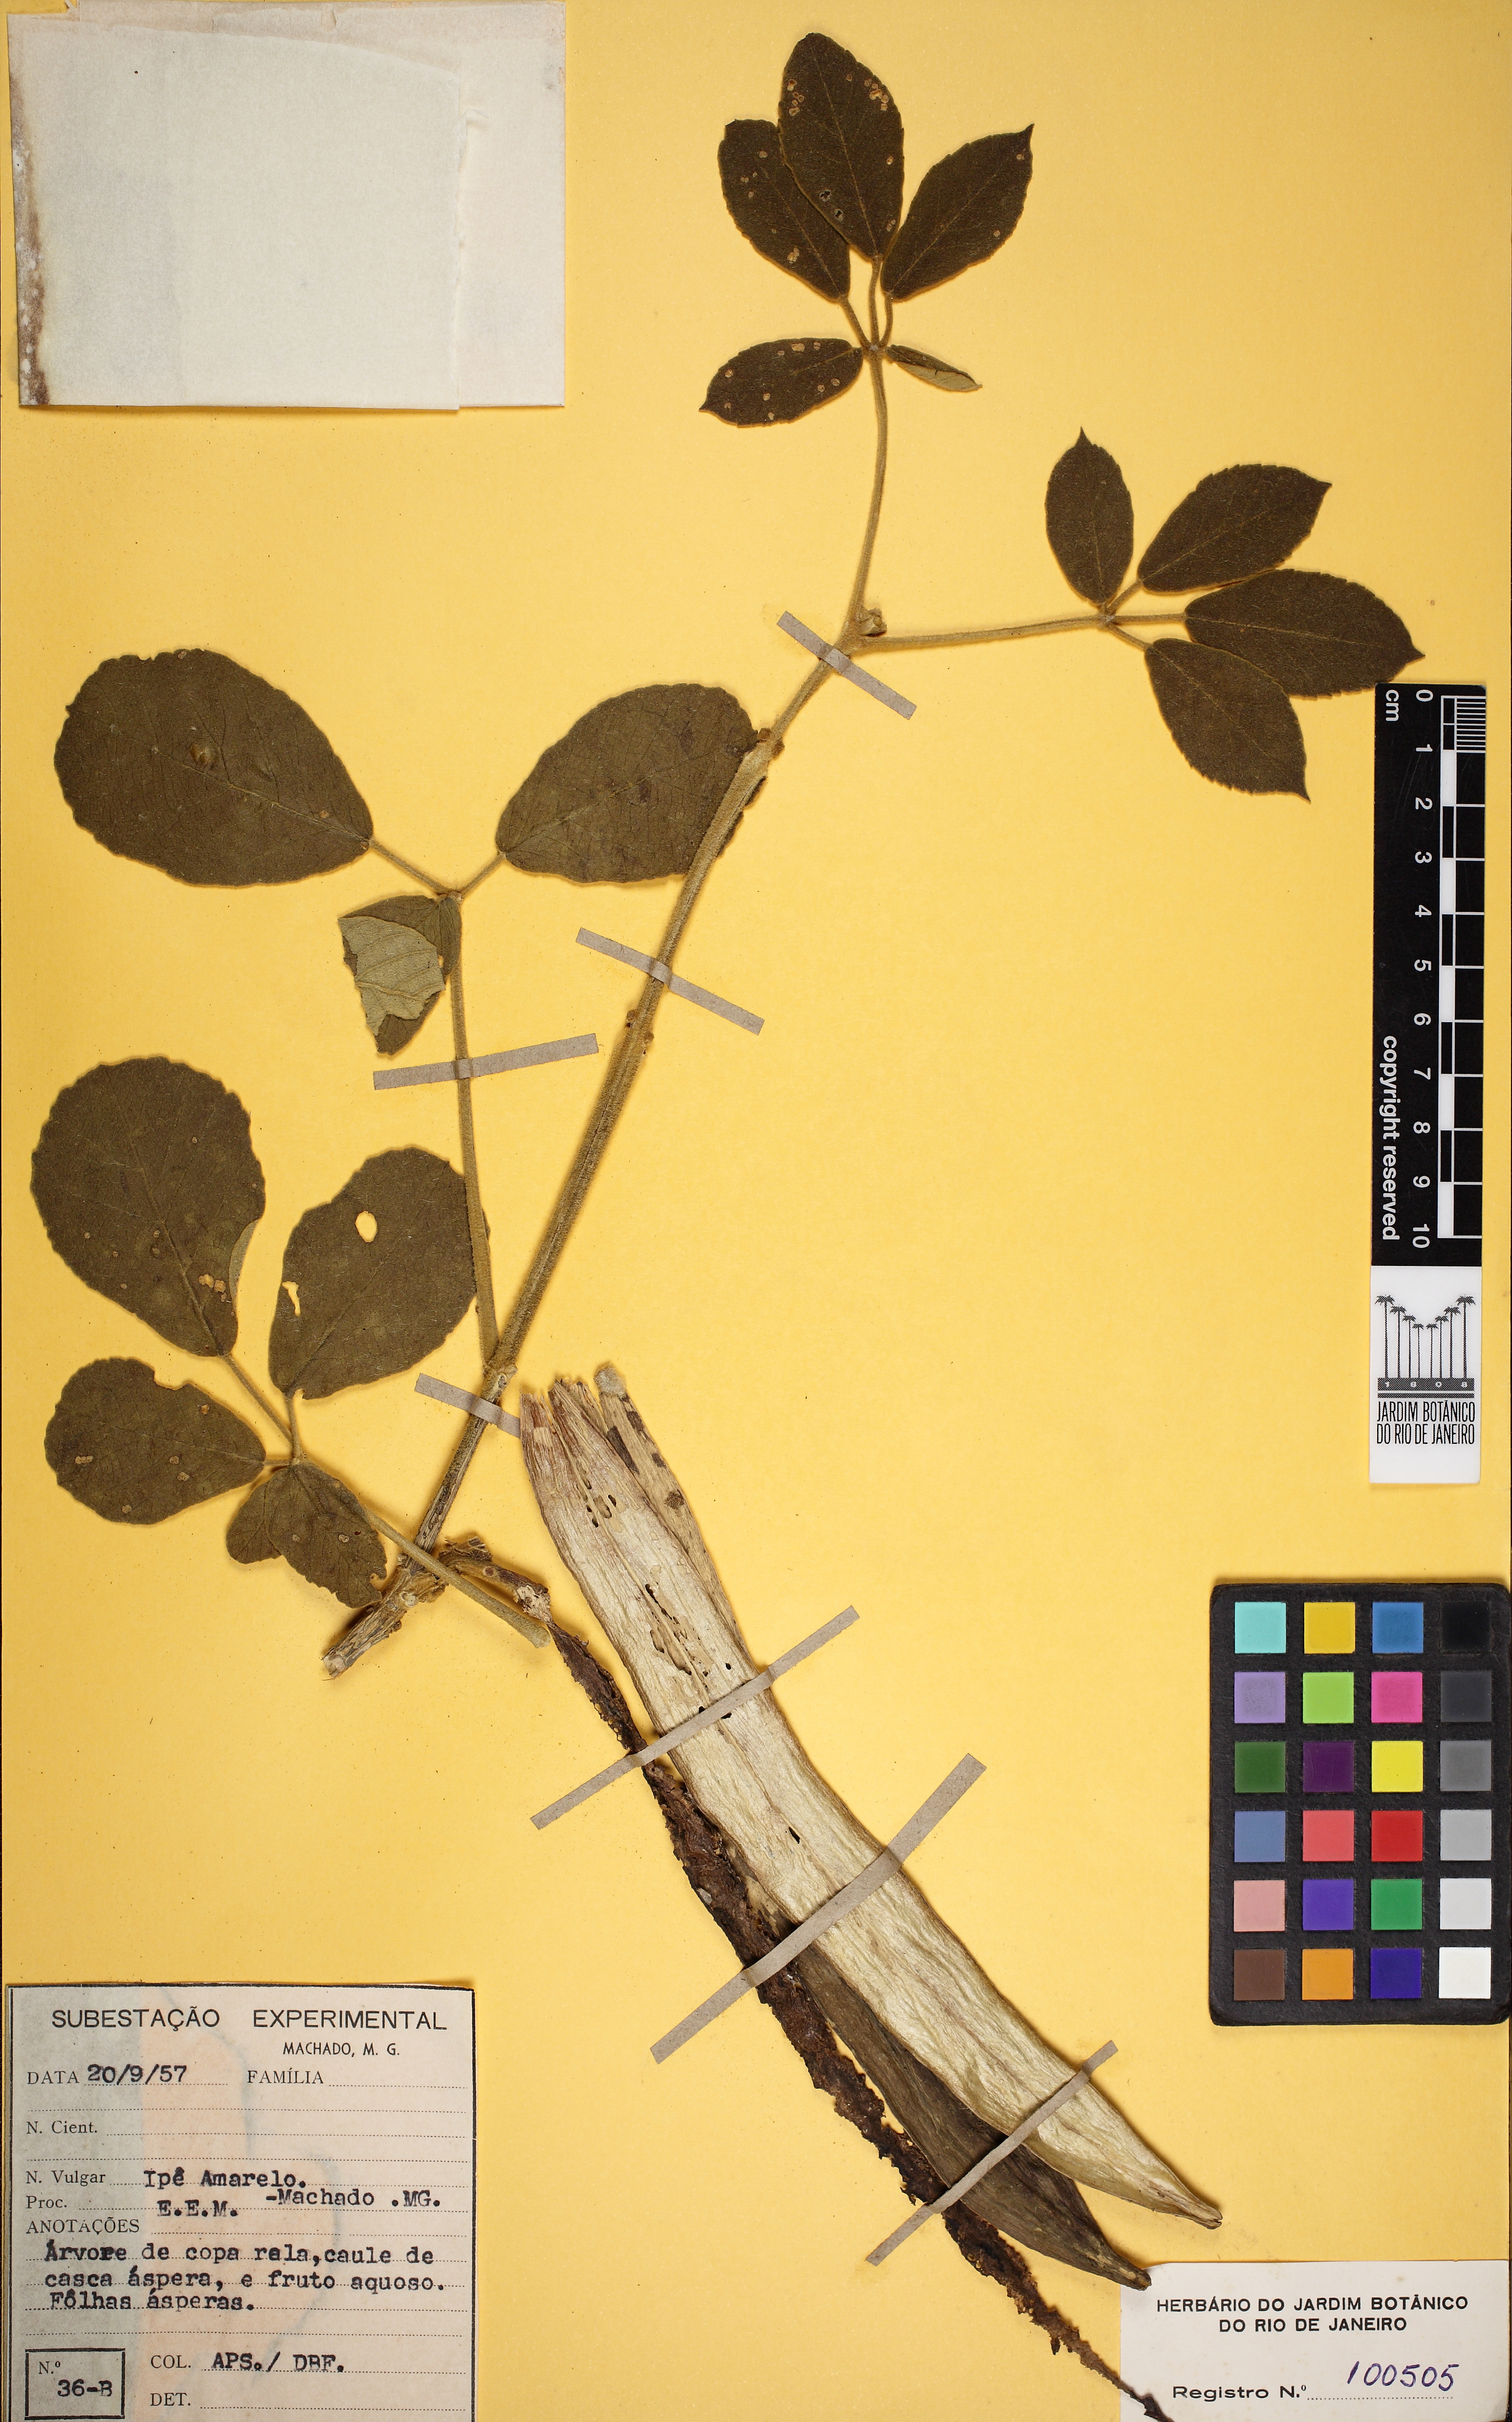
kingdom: Plantae
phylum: Tracheophyta
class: Magnoliopsida
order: Lamiales
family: Bignoniaceae
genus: Handroanthus
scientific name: Handroanthus ochraceus
